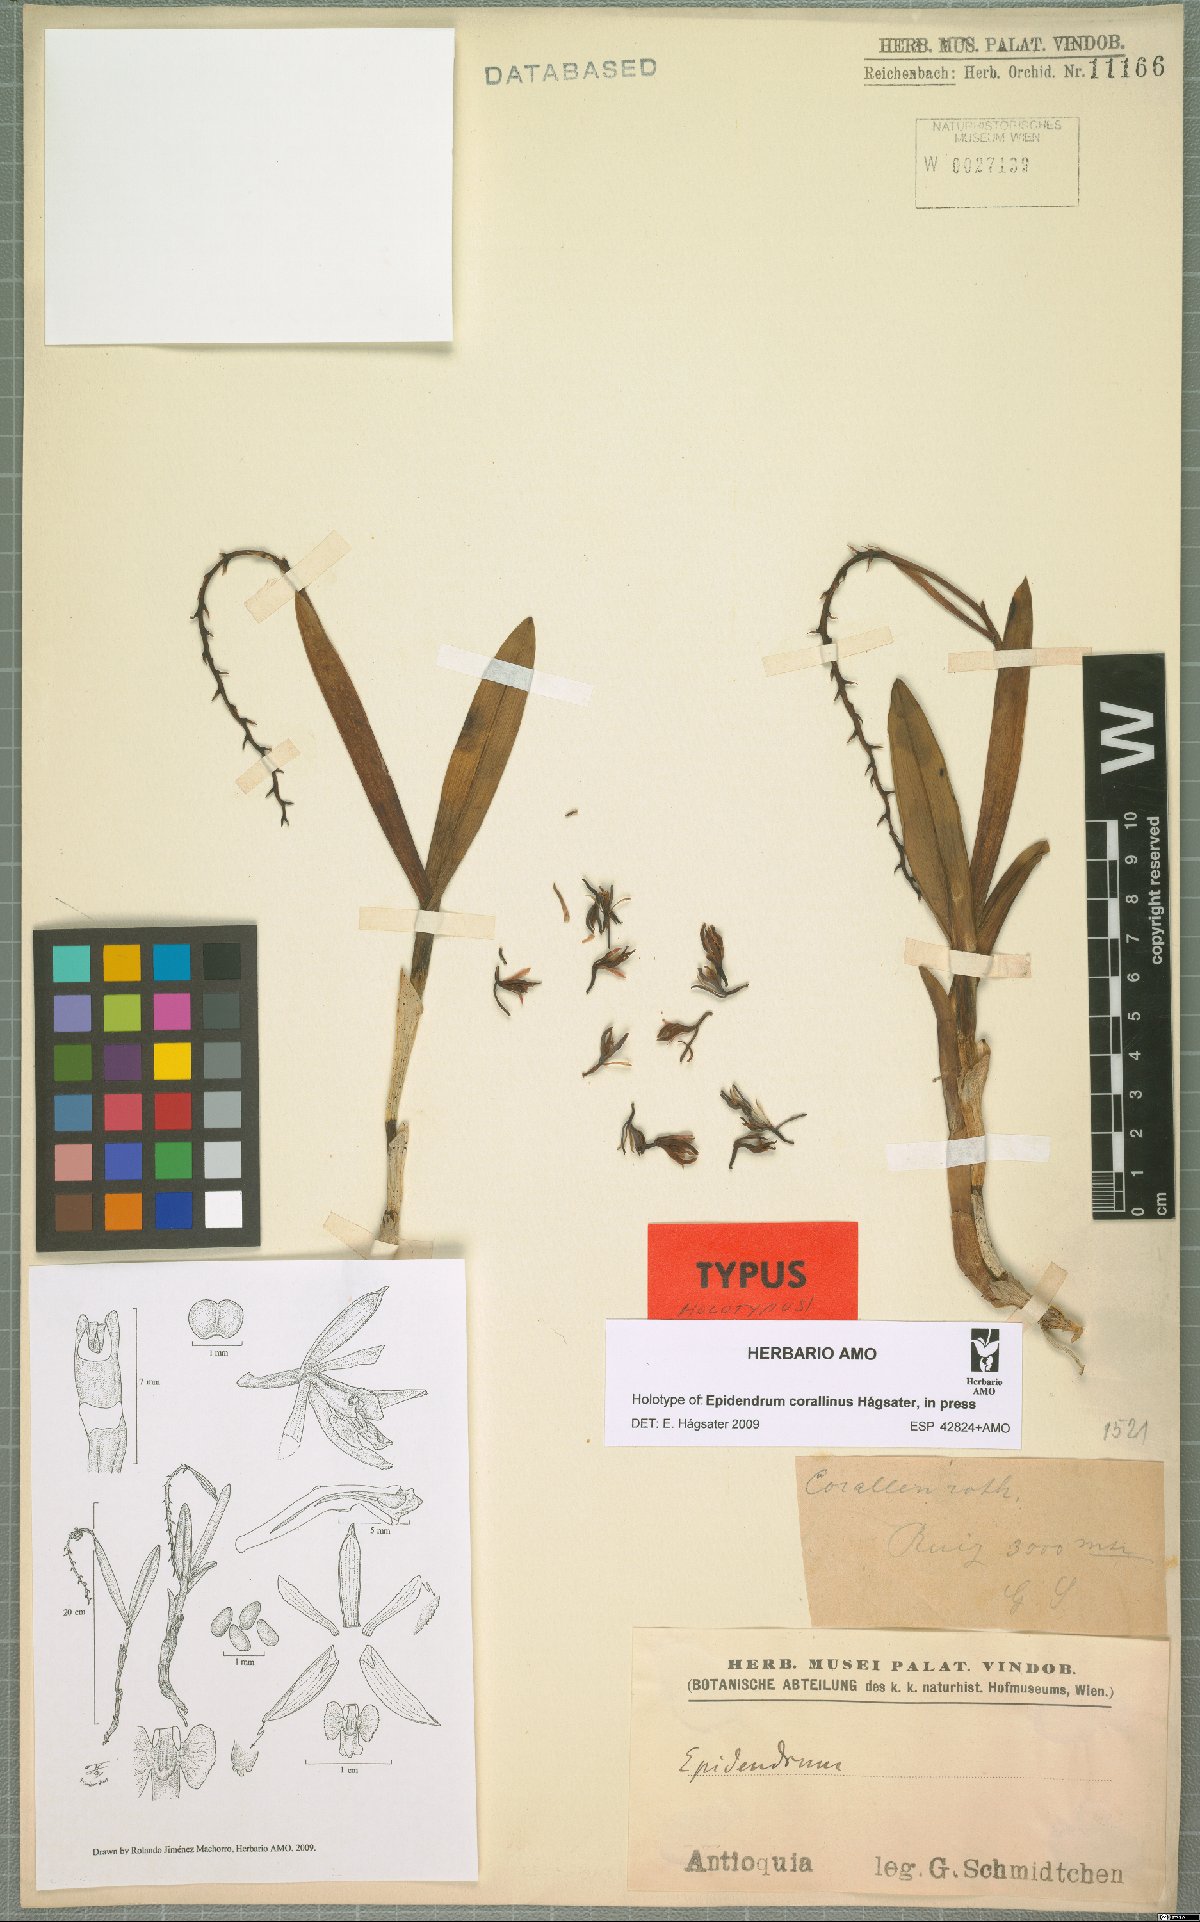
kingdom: Plantae
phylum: Tracheophyta
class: Liliopsida
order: Asparagales
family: Orchidaceae
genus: Epidendrum
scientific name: Epidendrum corallinum
